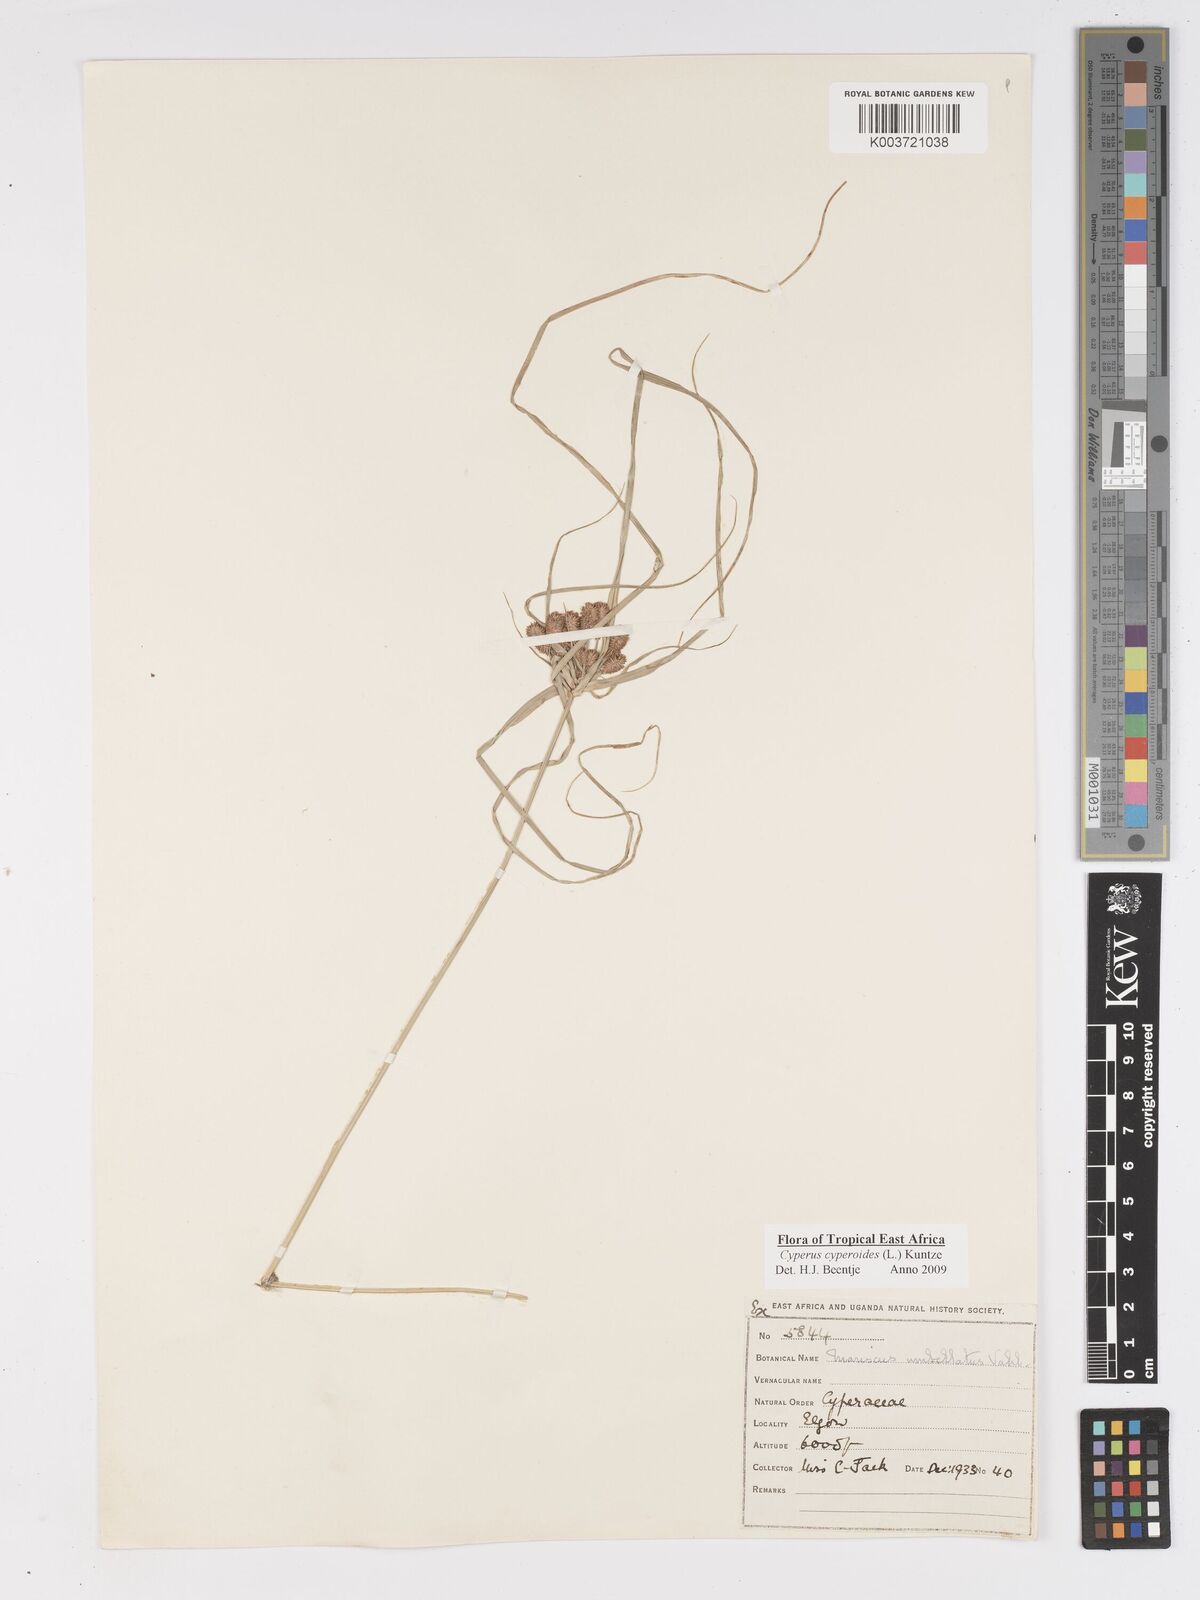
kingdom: Plantae
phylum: Tracheophyta
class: Liliopsida
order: Poales
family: Cyperaceae
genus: Cyperus
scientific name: Cyperus cyperoides
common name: Pacific island flat sedge
